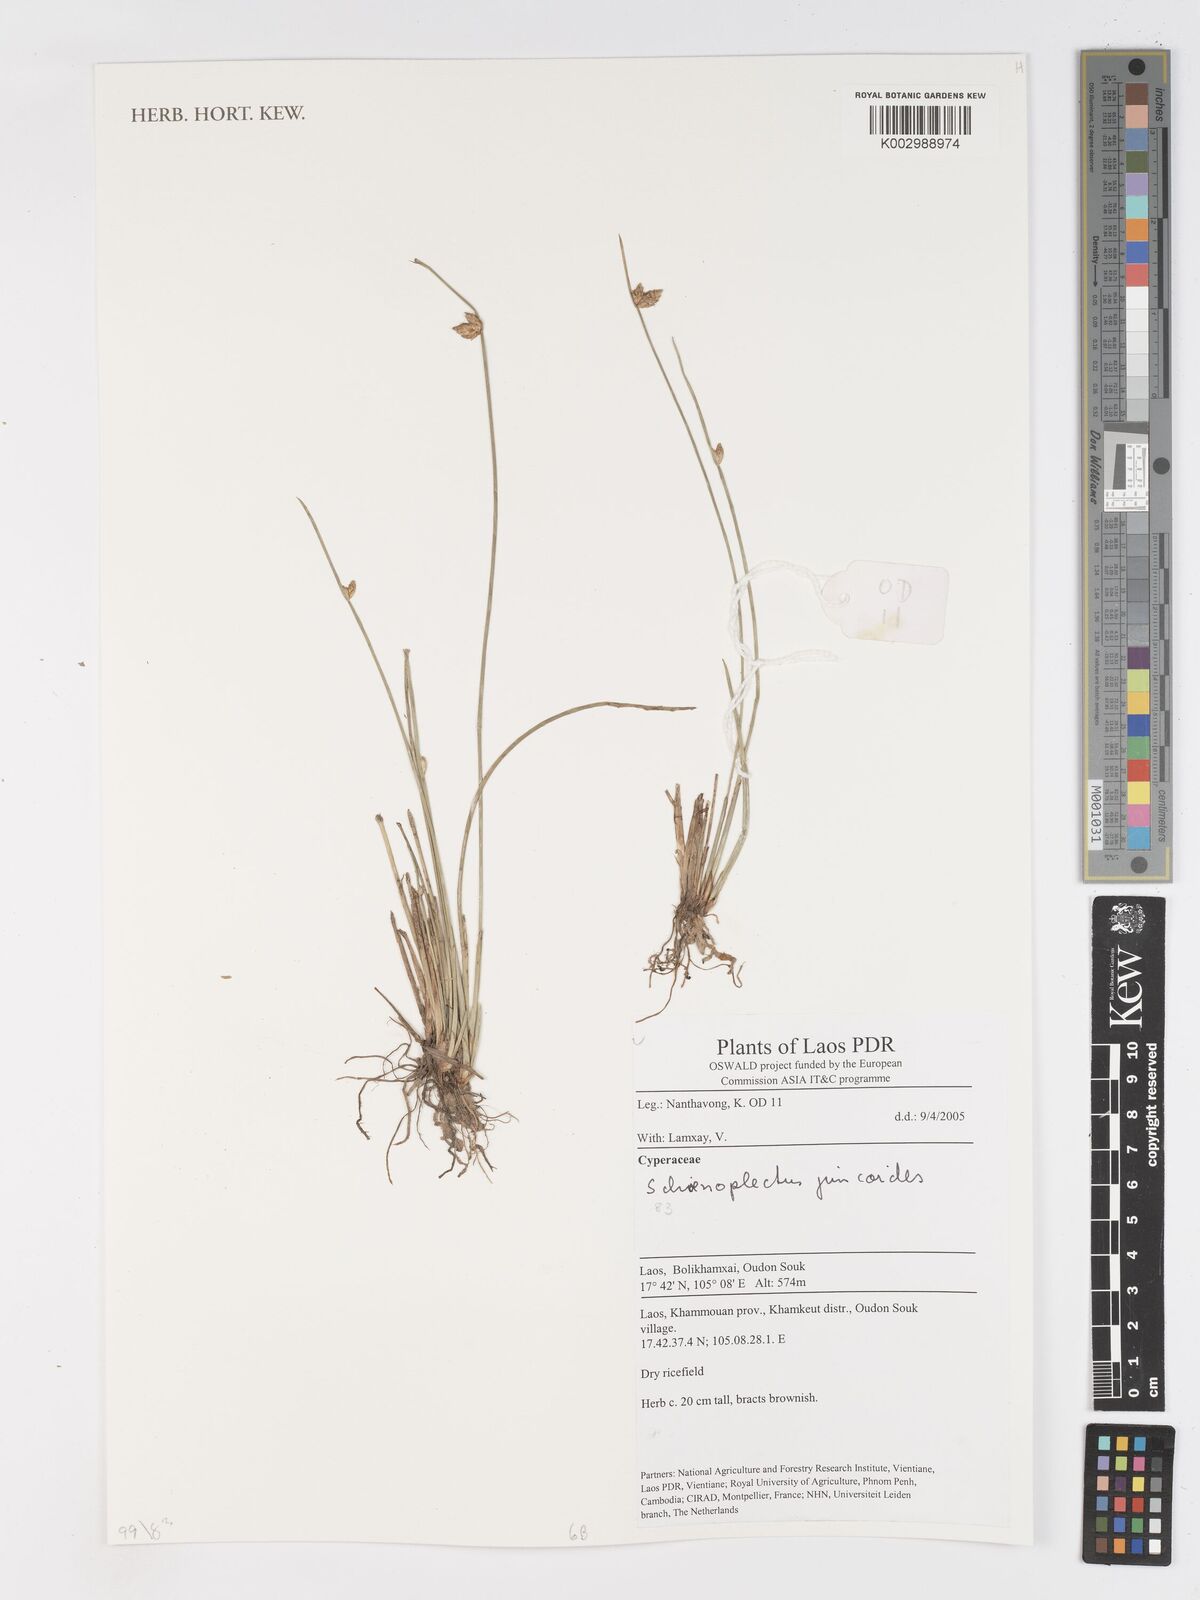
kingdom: Plantae
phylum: Tracheophyta
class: Liliopsida
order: Poales
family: Cyperaceae
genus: Schoenoplectiella
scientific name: Schoenoplectiella juncoides
